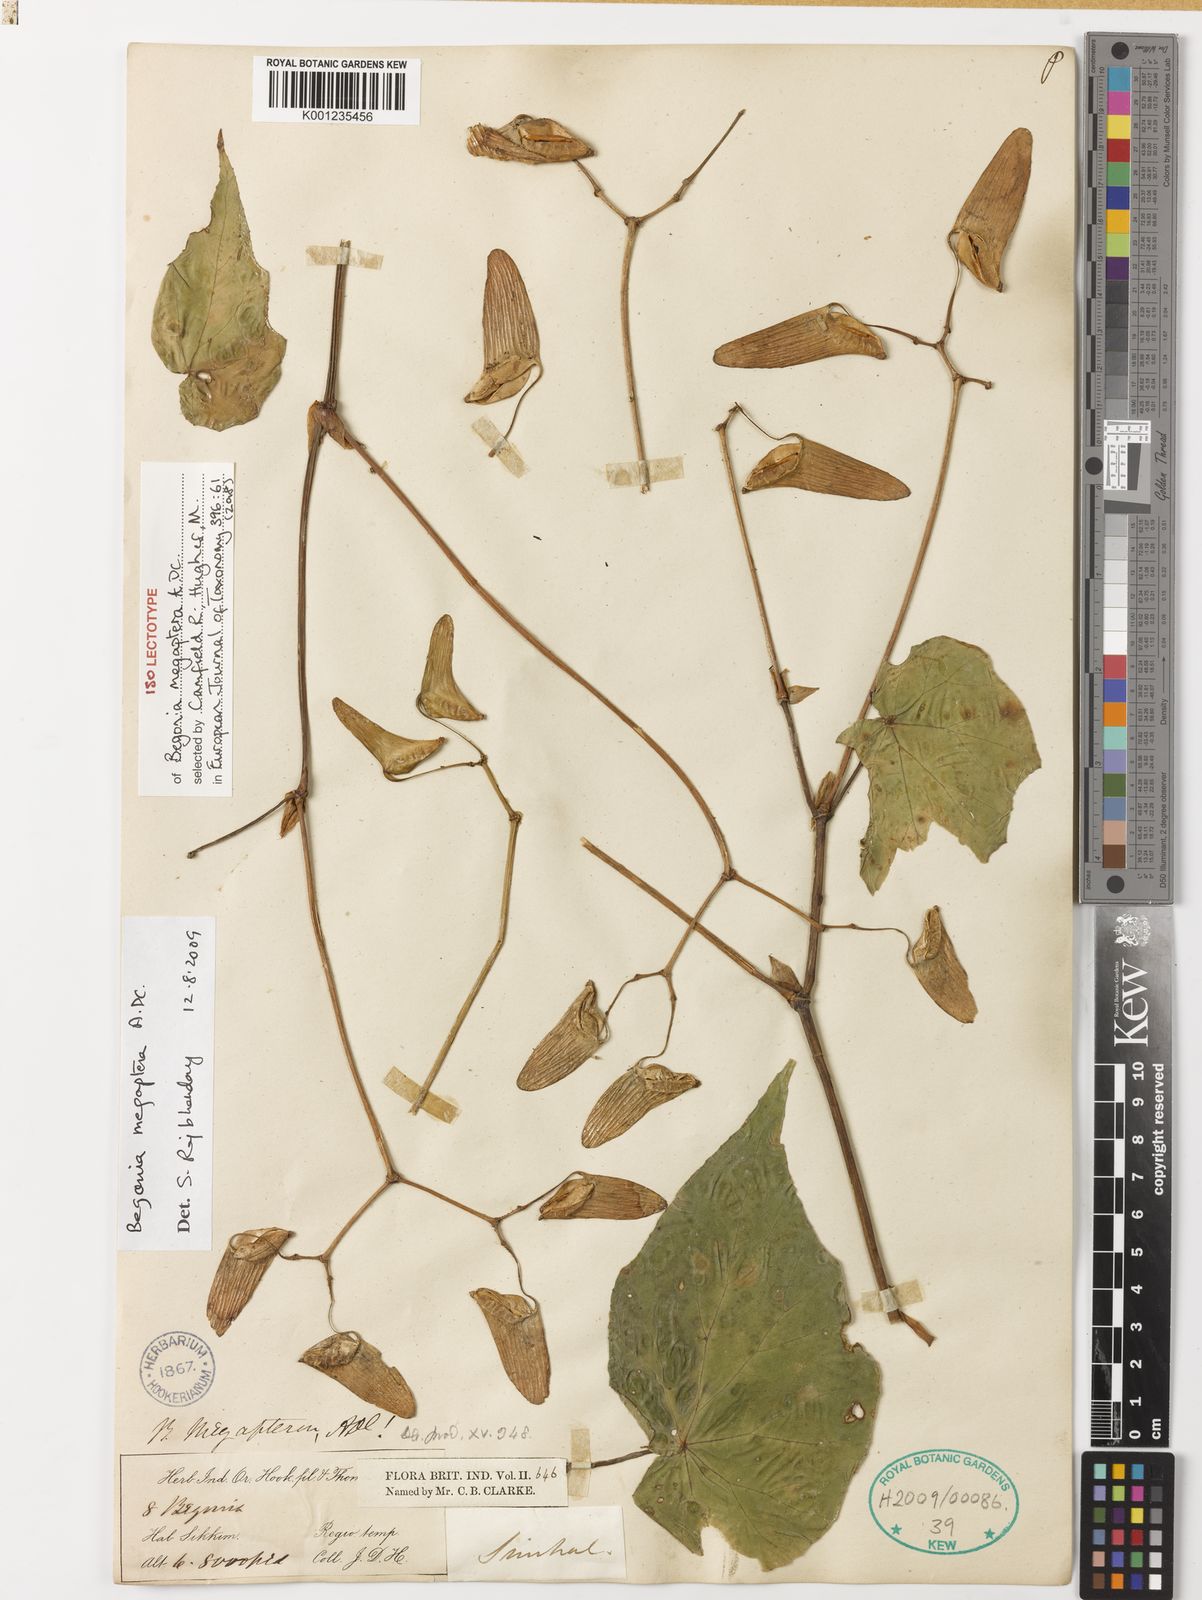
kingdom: Plantae
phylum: Tracheophyta
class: Magnoliopsida
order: Cucurbitales
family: Begoniaceae
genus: Begonia
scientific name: Begonia megaptera
